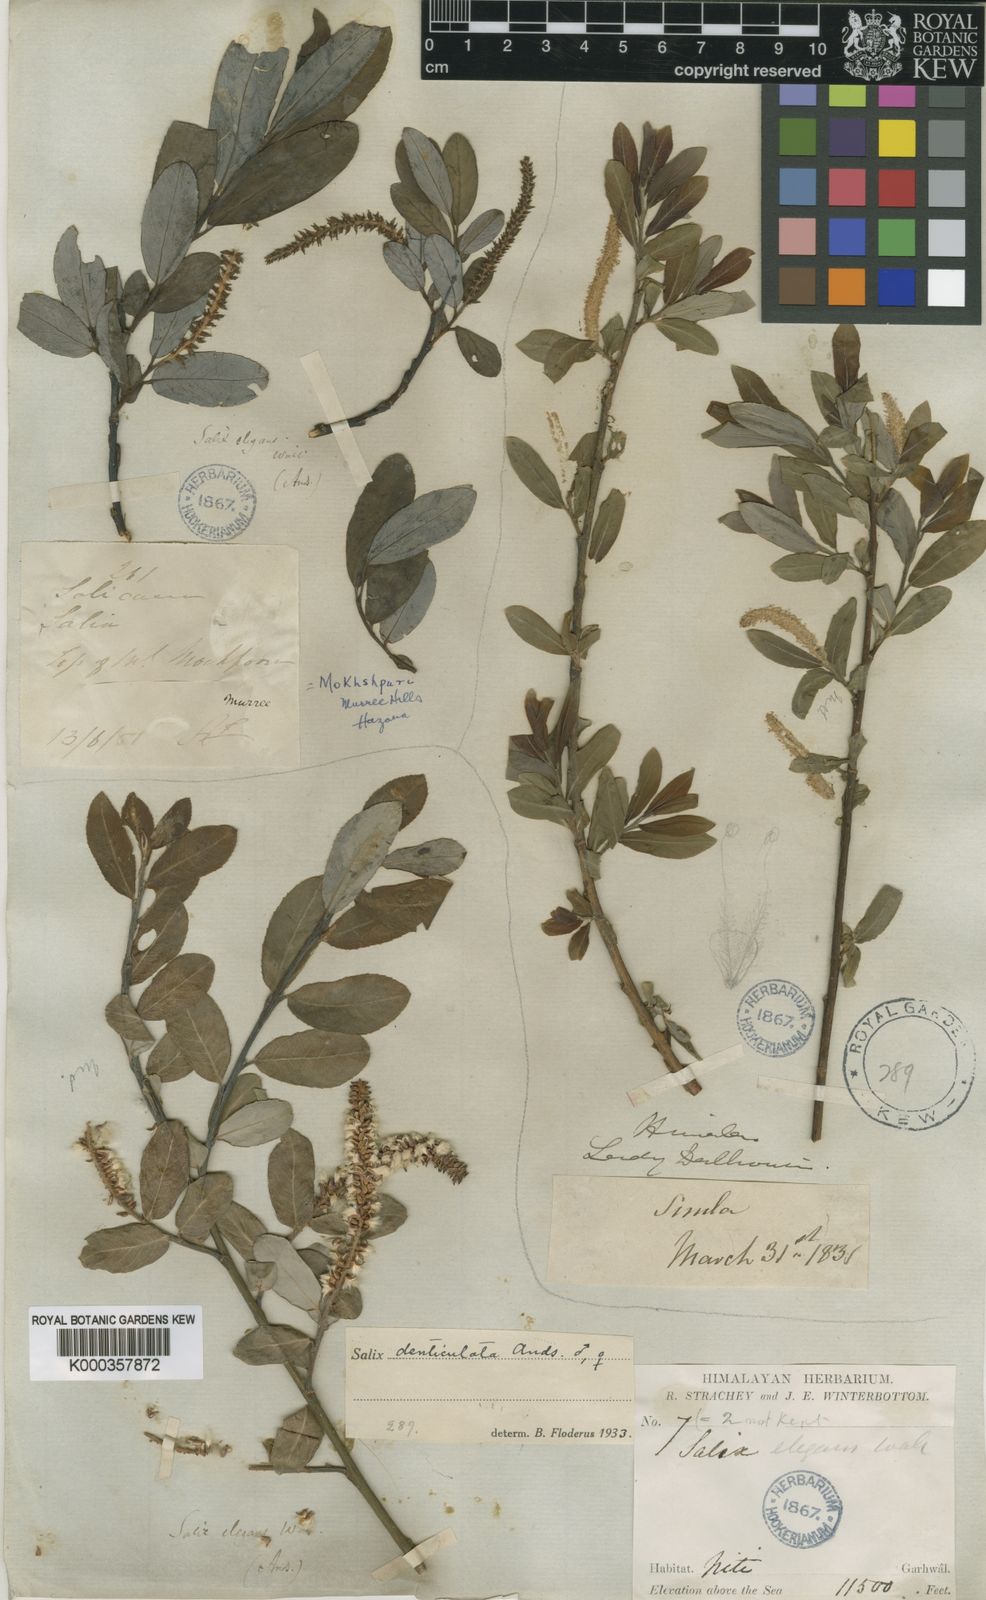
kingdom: Plantae
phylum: Tracheophyta
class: Magnoliopsida
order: Malpighiales
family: Salicaceae
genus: Salix
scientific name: Salix denticulata
